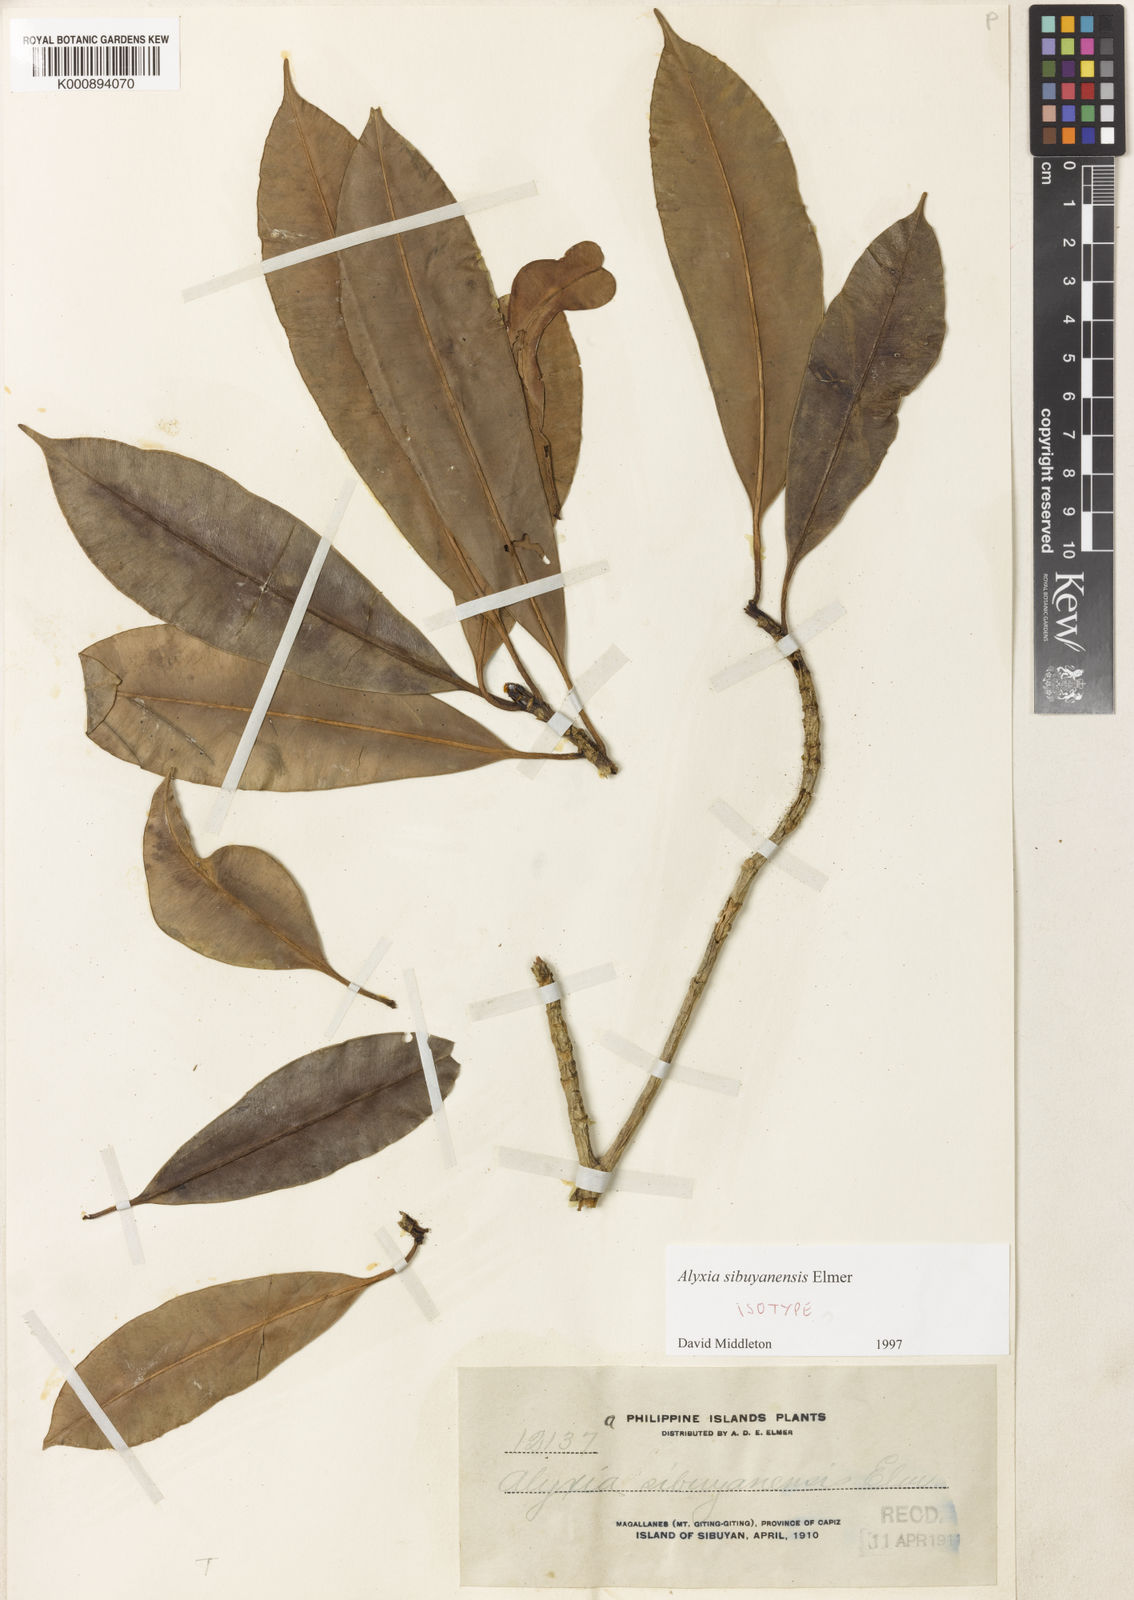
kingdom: Plantae
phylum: Tracheophyta
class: Magnoliopsida
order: Gentianales
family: Apocynaceae
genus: Alyxia
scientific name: Alyxia monticola
